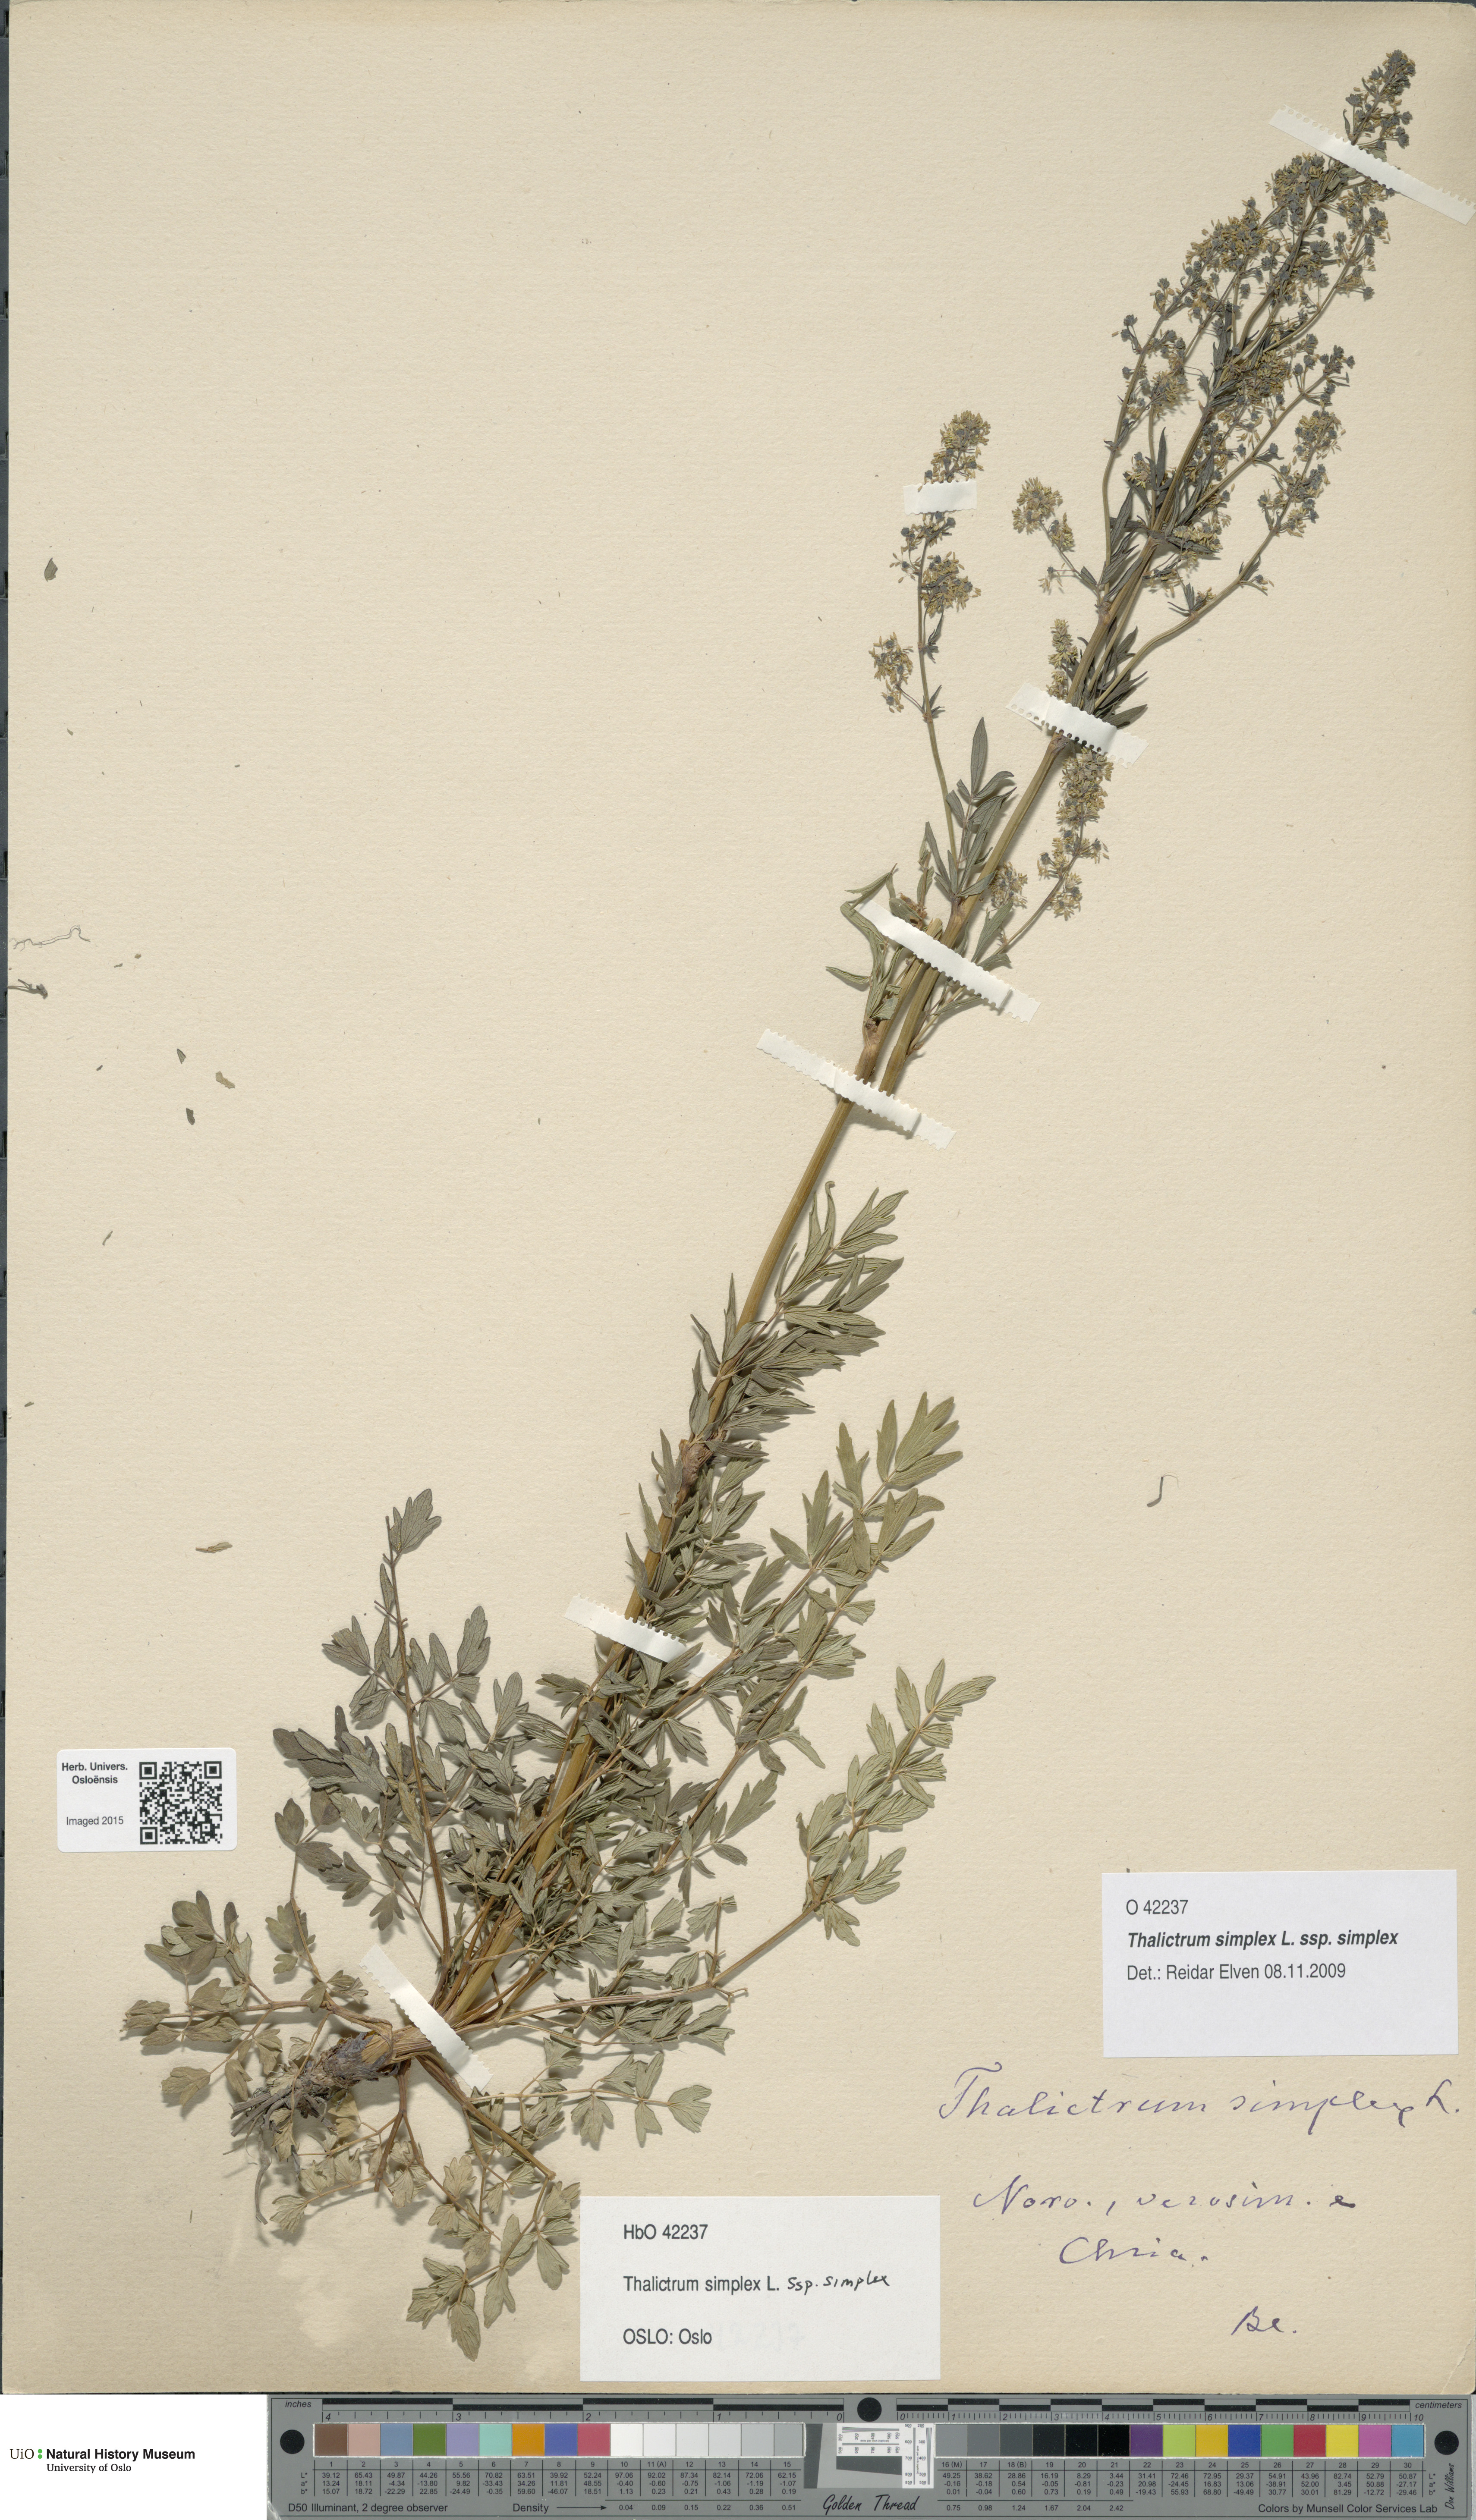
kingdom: Plantae
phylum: Tracheophyta
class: Magnoliopsida
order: Ranunculales
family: Ranunculaceae
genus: Thalictrum
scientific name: Thalictrum simplex
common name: Small meadow-rue
